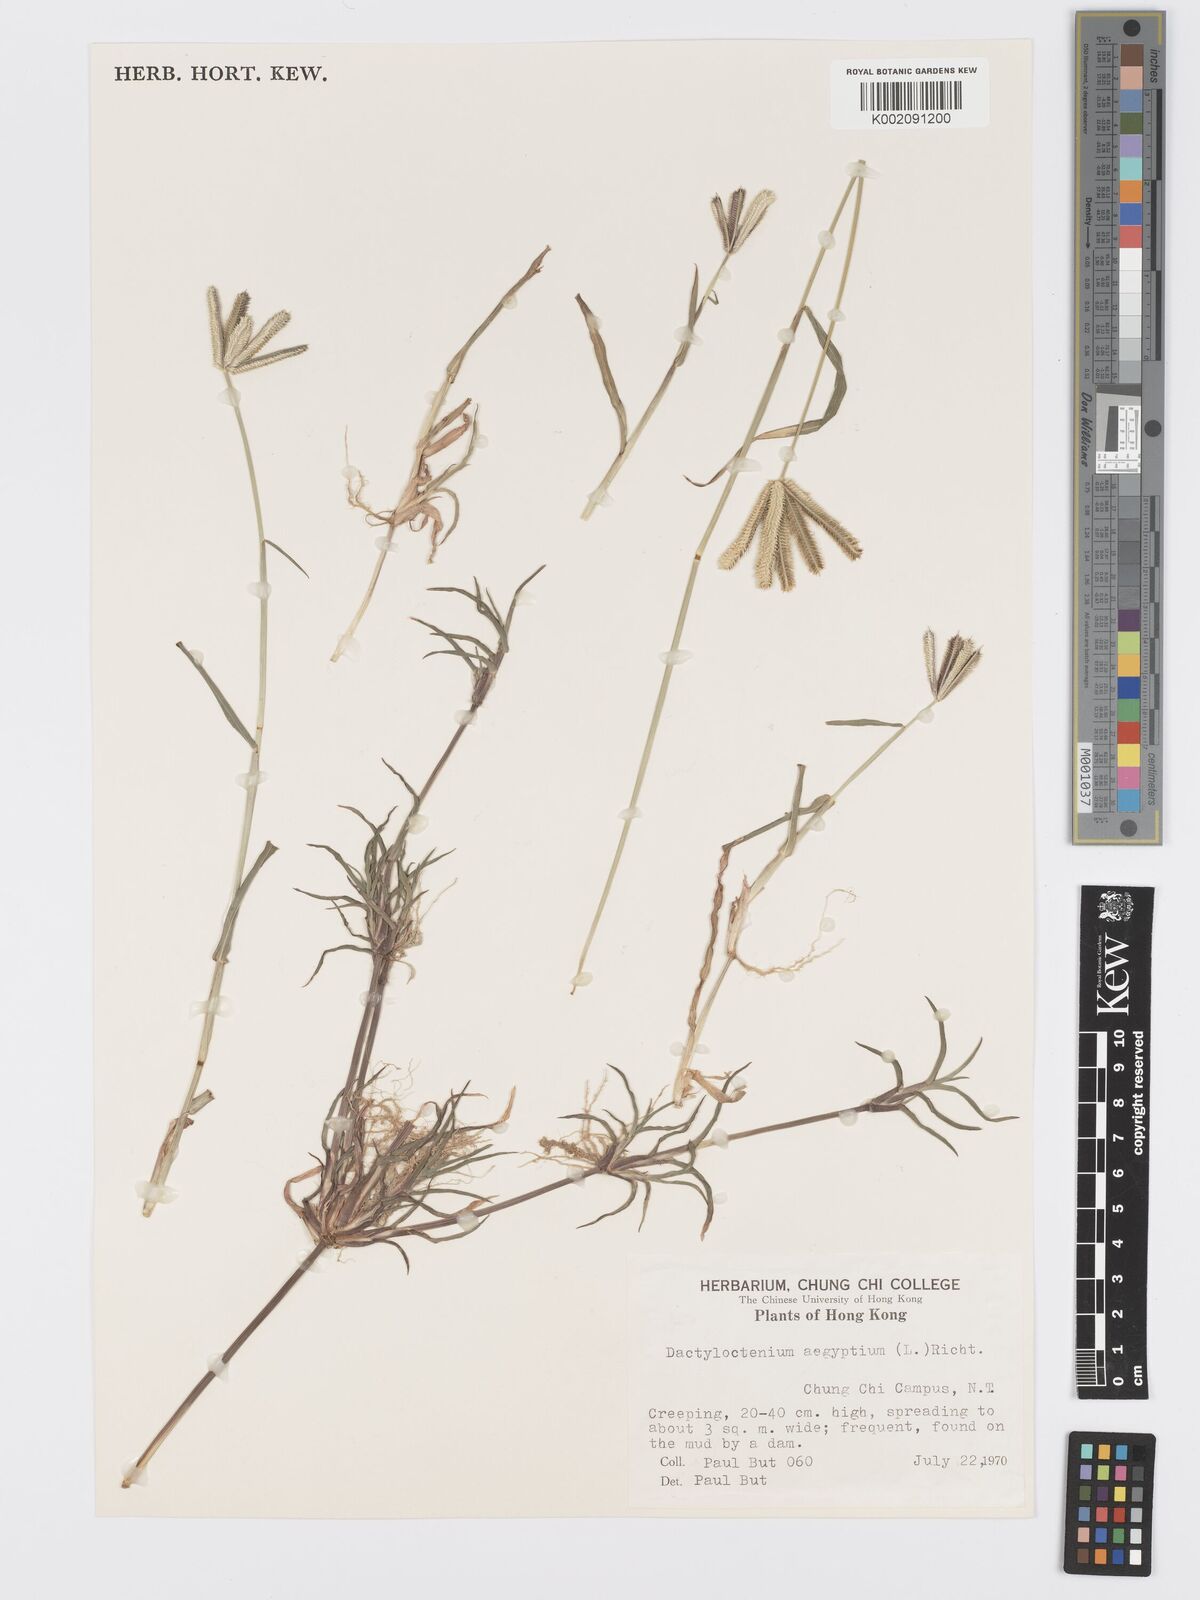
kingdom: Plantae
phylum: Tracheophyta
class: Liliopsida
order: Poales
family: Poaceae
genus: Dactyloctenium
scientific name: Dactyloctenium aegyptium
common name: Egyptian grass
